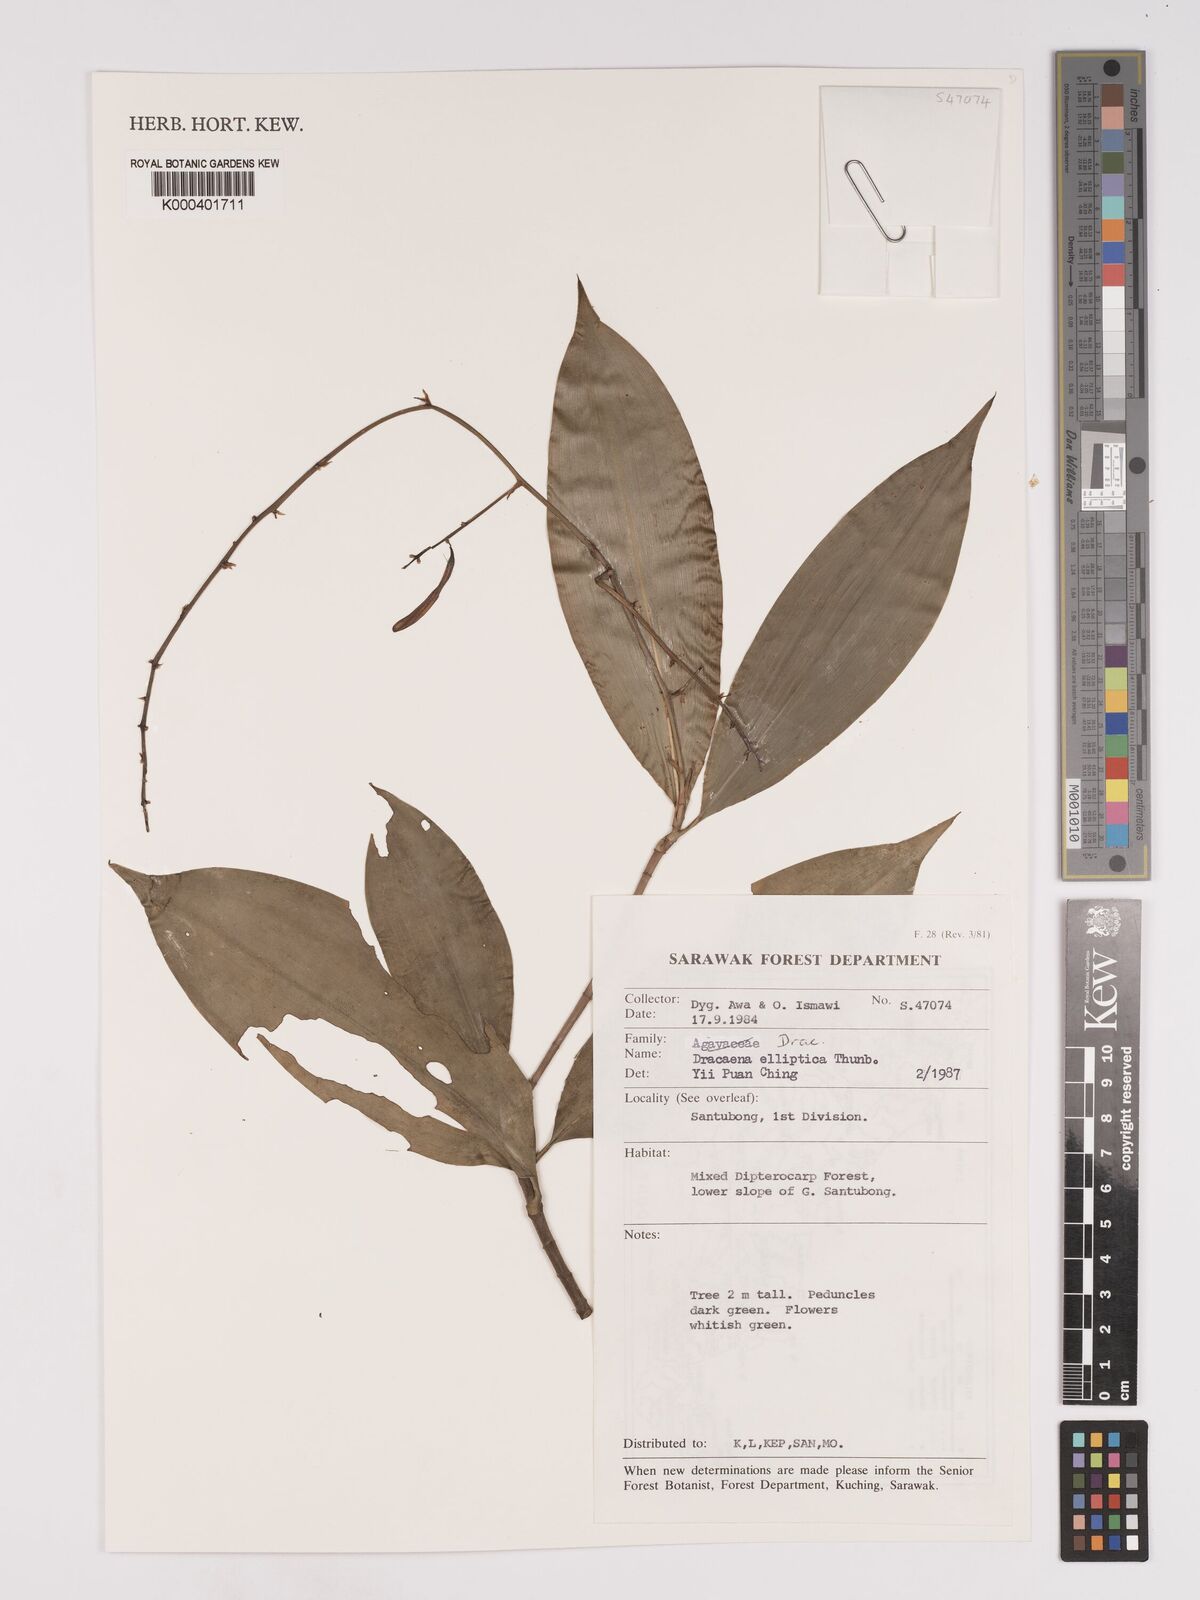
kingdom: Plantae
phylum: Tracheophyta
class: Liliopsida
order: Asparagales
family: Asparagaceae
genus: Dracaena
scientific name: Dracaena elliptica
